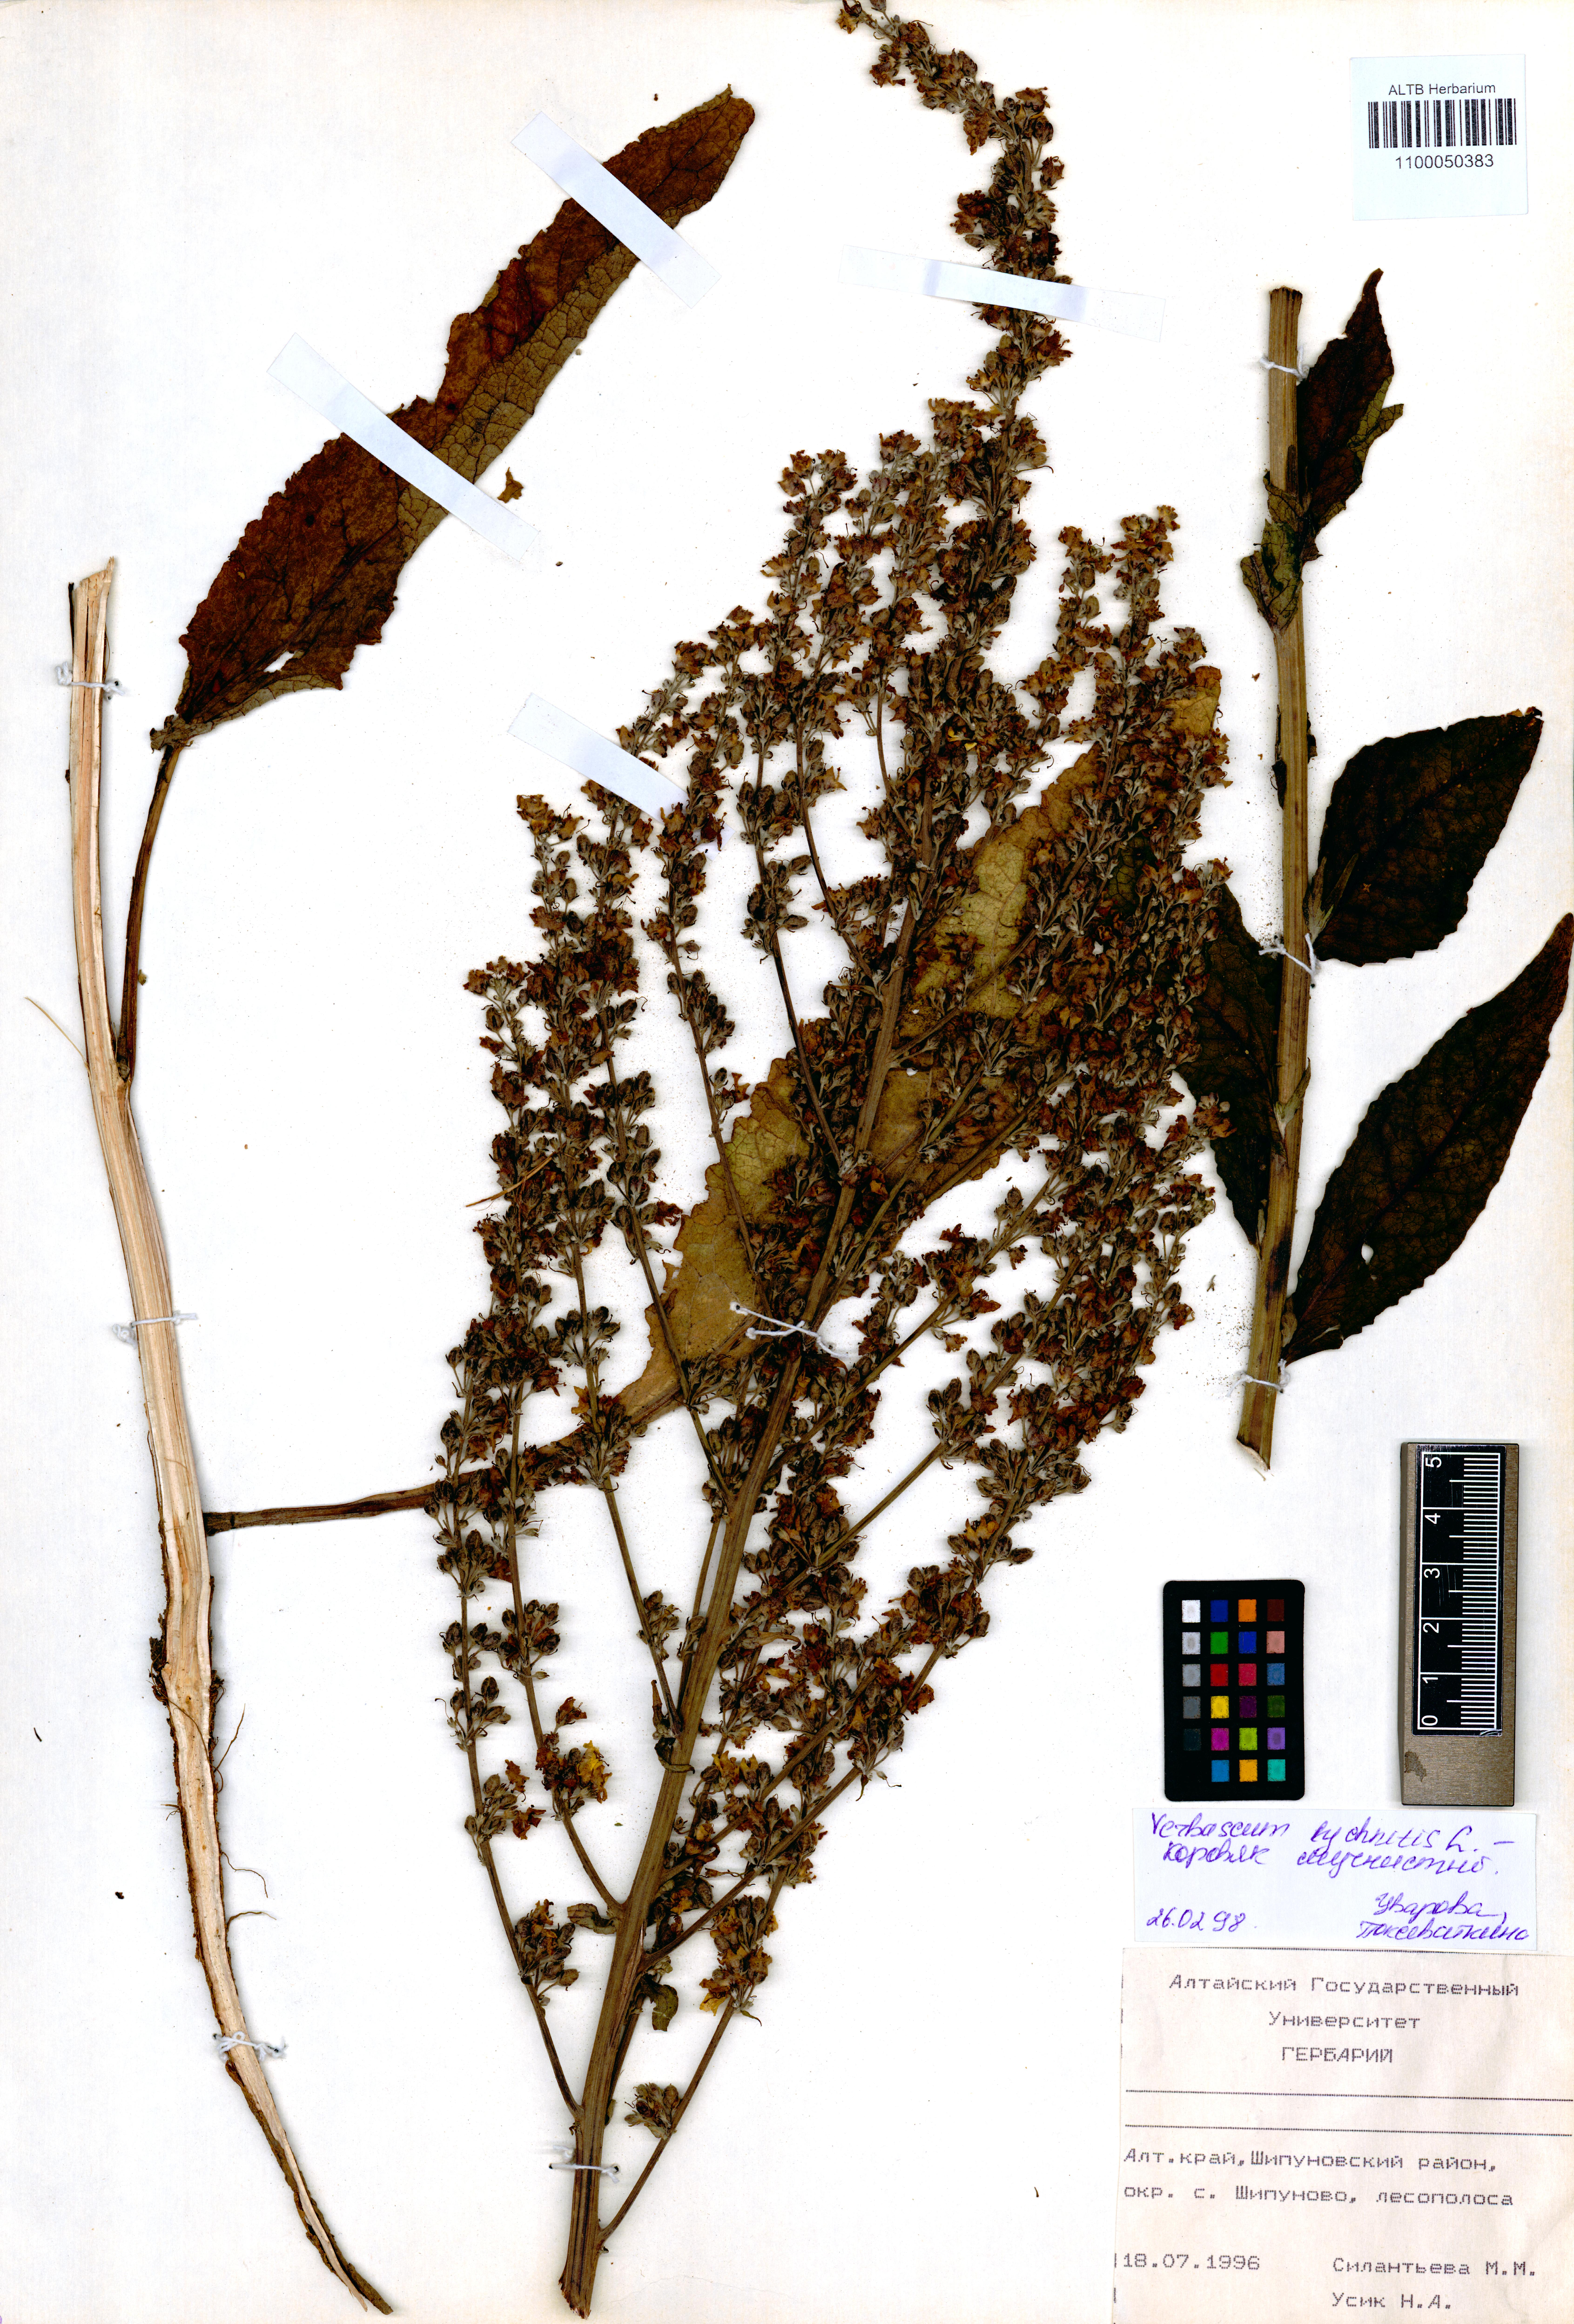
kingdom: Plantae
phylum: Tracheophyta
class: Magnoliopsida
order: Lamiales
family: Scrophulariaceae
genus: Verbascum
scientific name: Verbascum lychnitis
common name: White mullein
